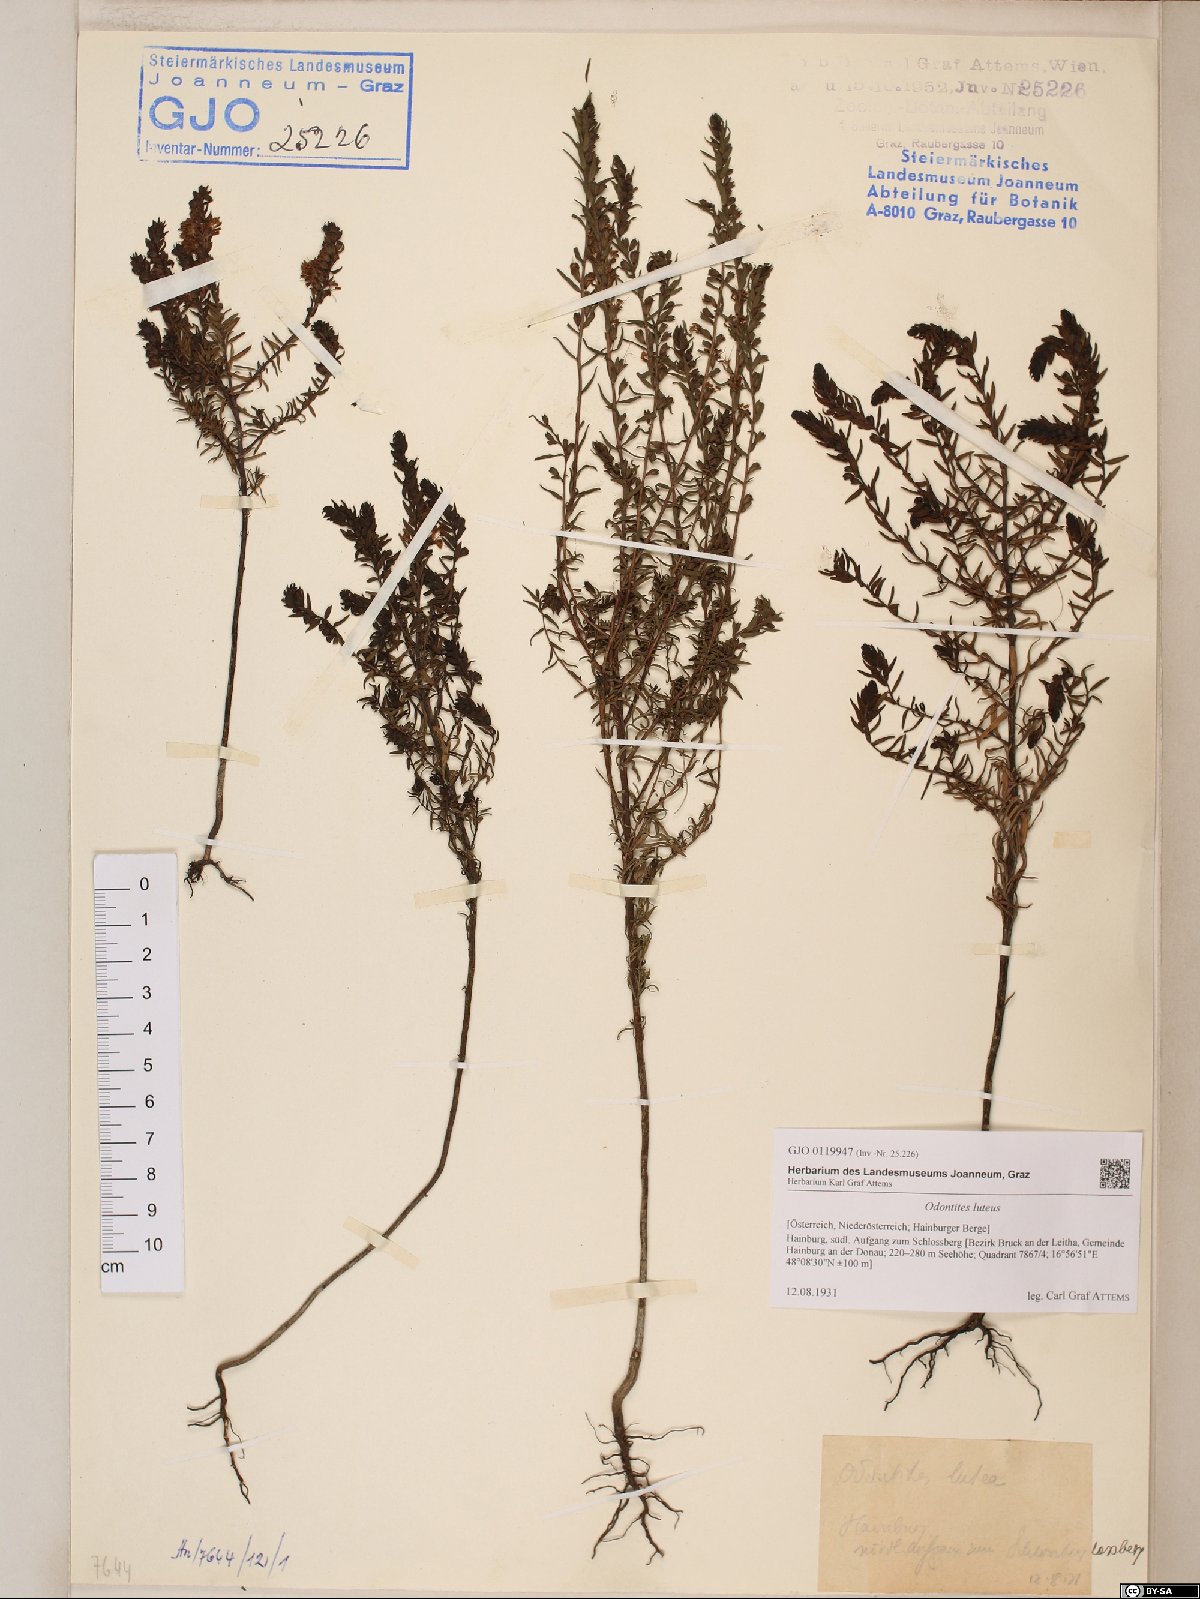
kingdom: Plantae
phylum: Tracheophyta
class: Magnoliopsida
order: Lamiales
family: Orobanchaceae
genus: Odontites
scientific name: Odontites luteus
